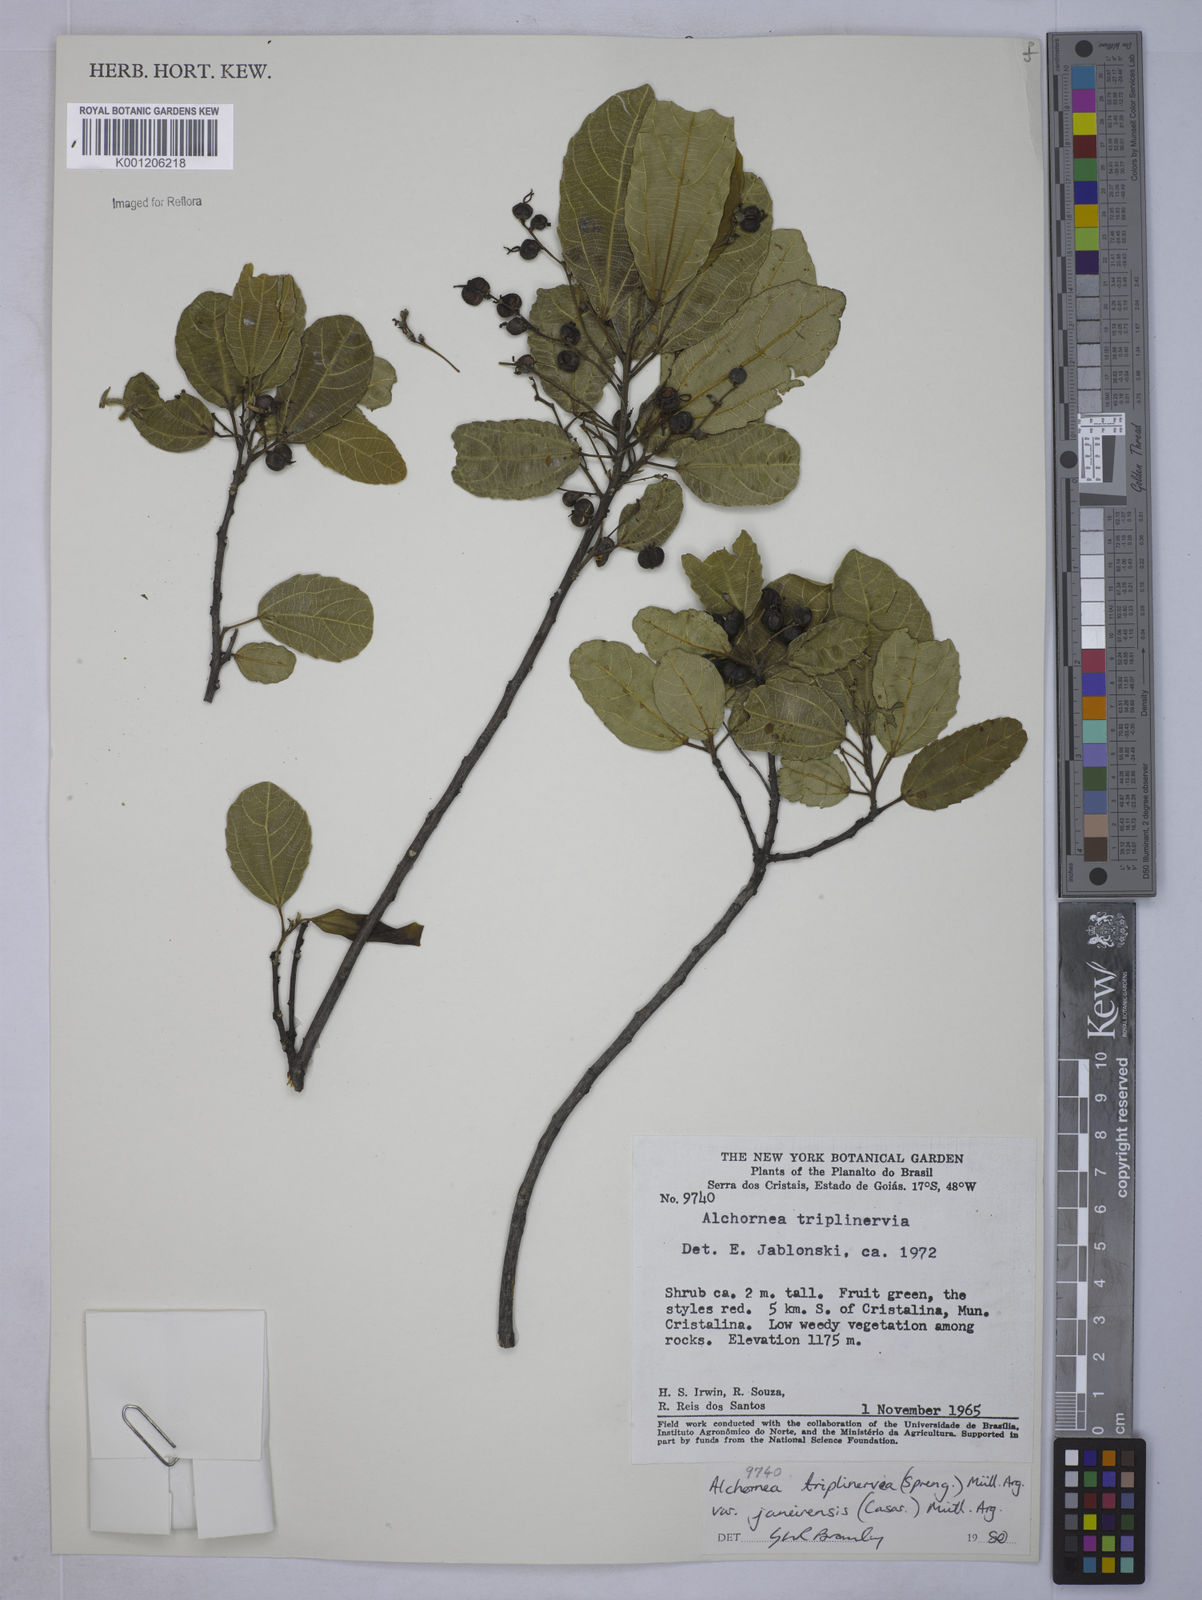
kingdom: Plantae
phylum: Tracheophyta
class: Magnoliopsida
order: Malpighiales
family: Euphorbiaceae
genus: Alchornea
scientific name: Alchornea
